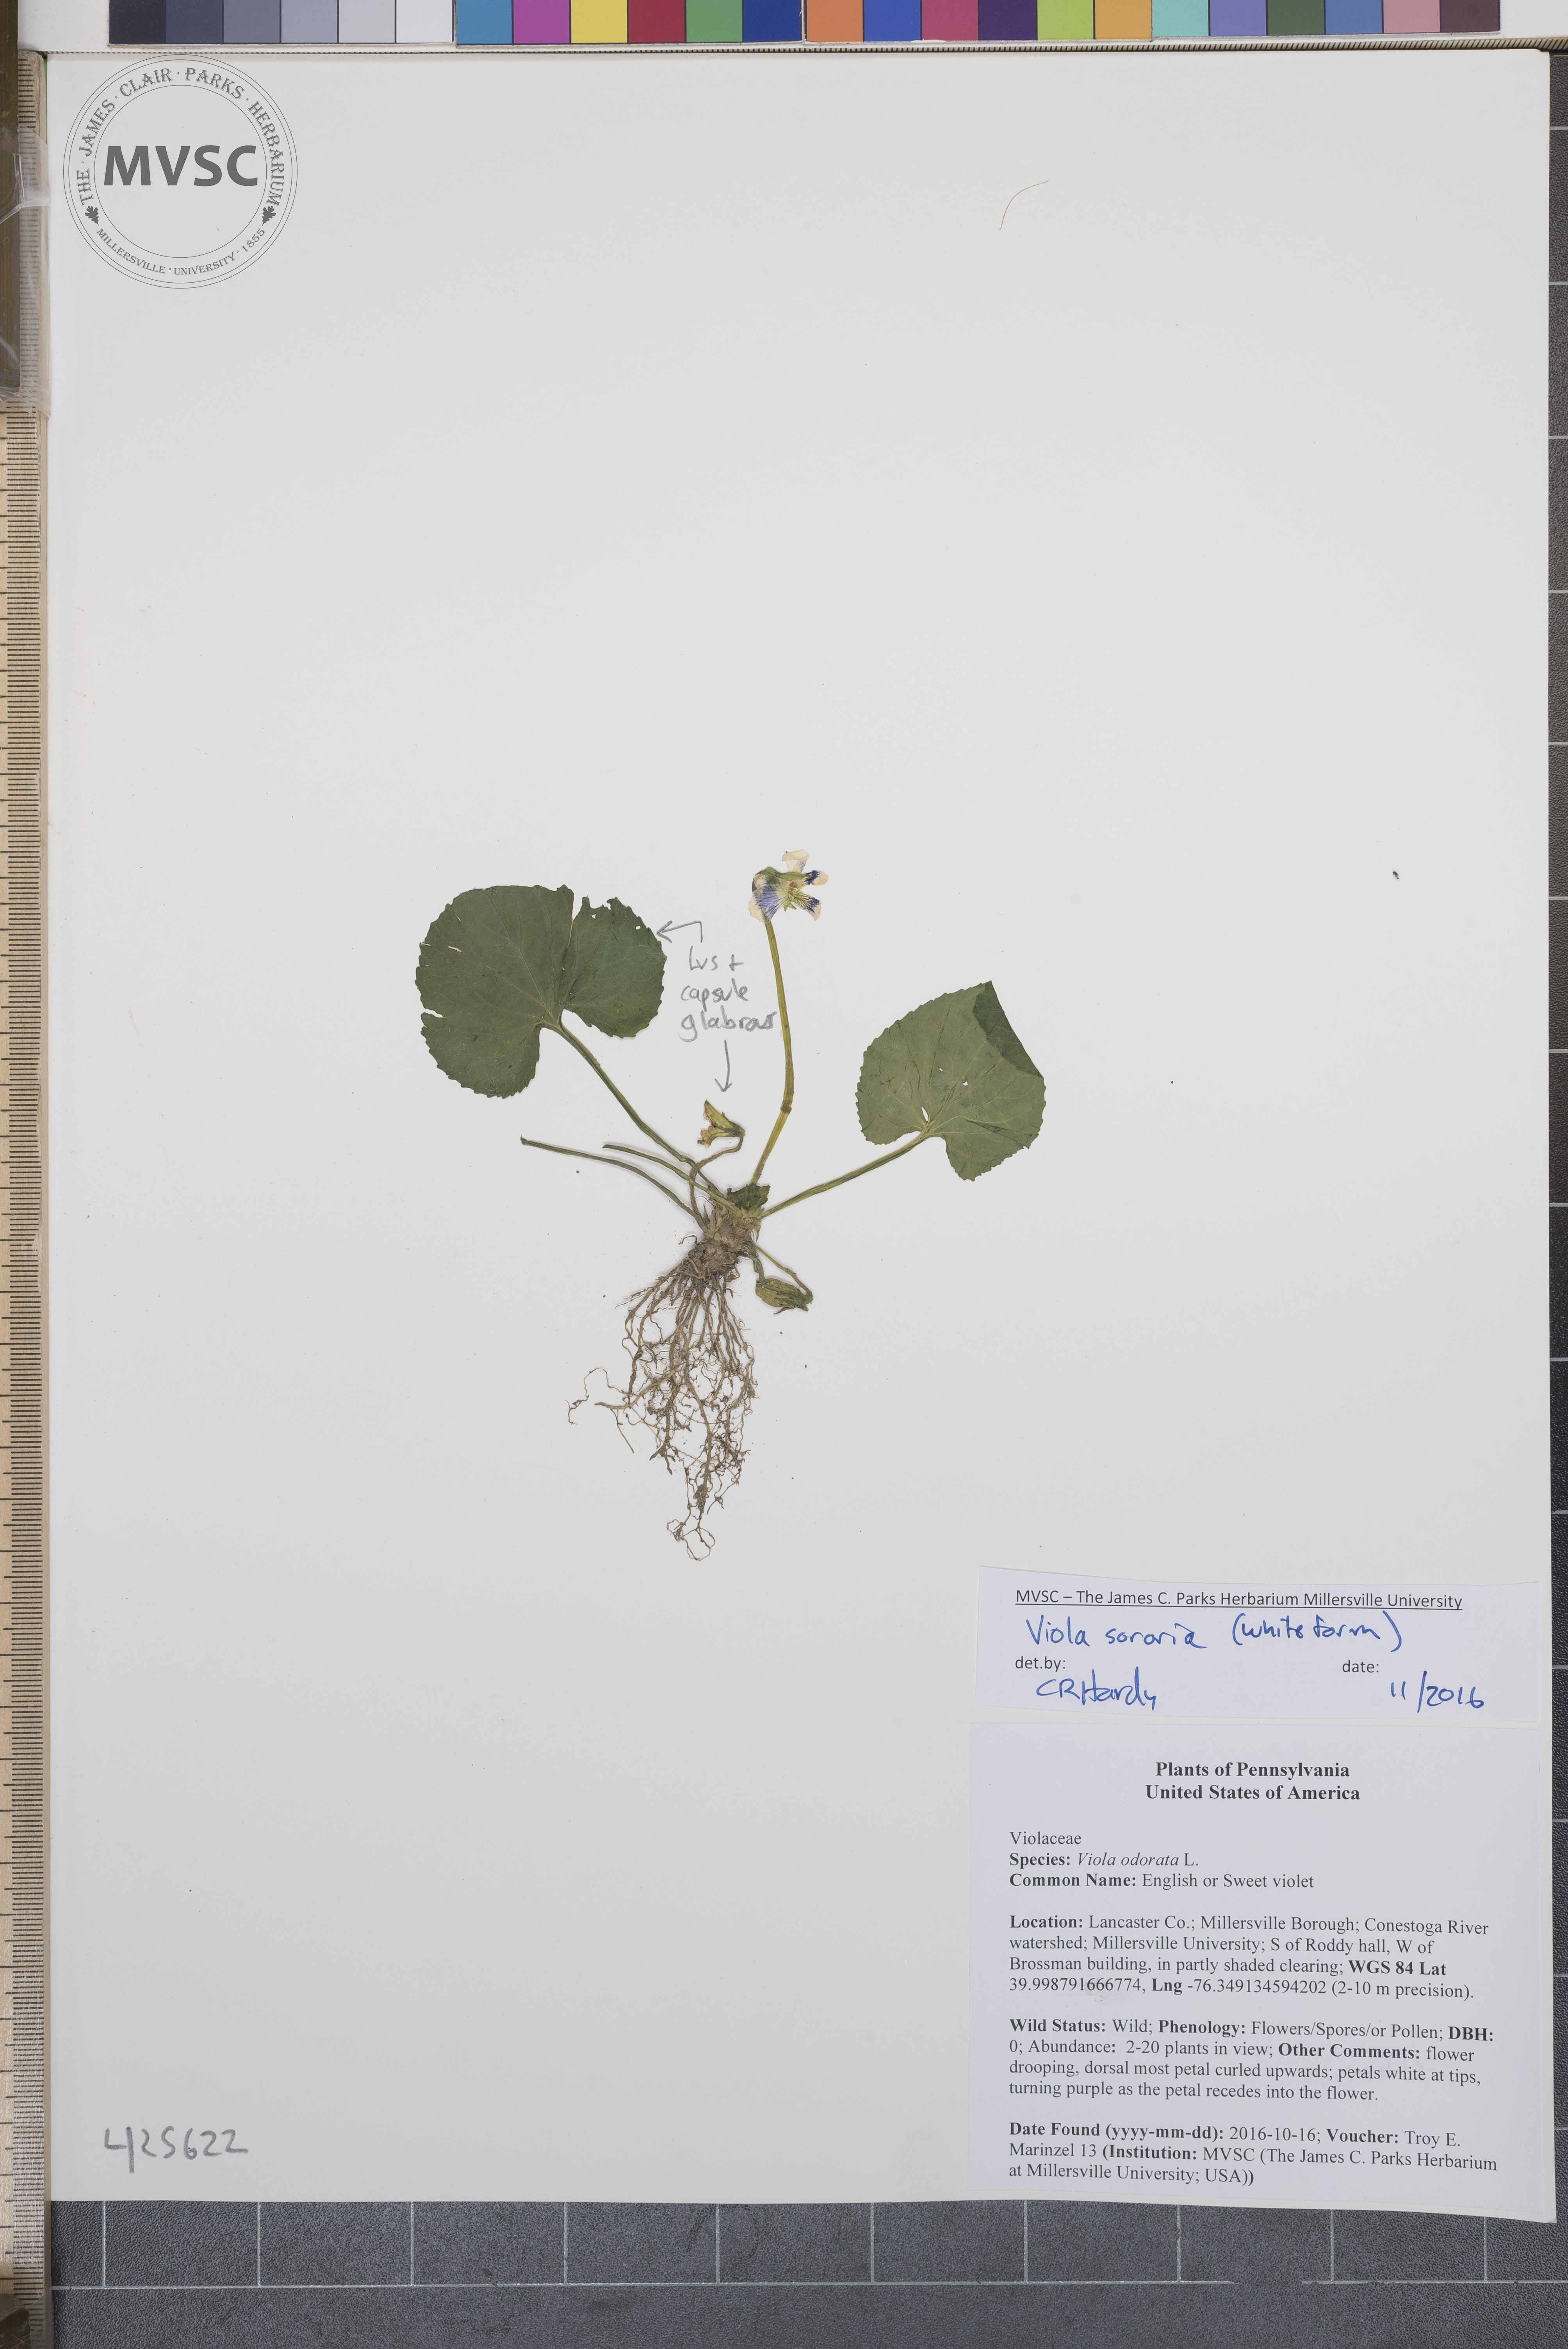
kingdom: Plantae
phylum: Tracheophyta
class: Magnoliopsida
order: Malpighiales
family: Violaceae
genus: Viola
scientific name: Viola sororia
